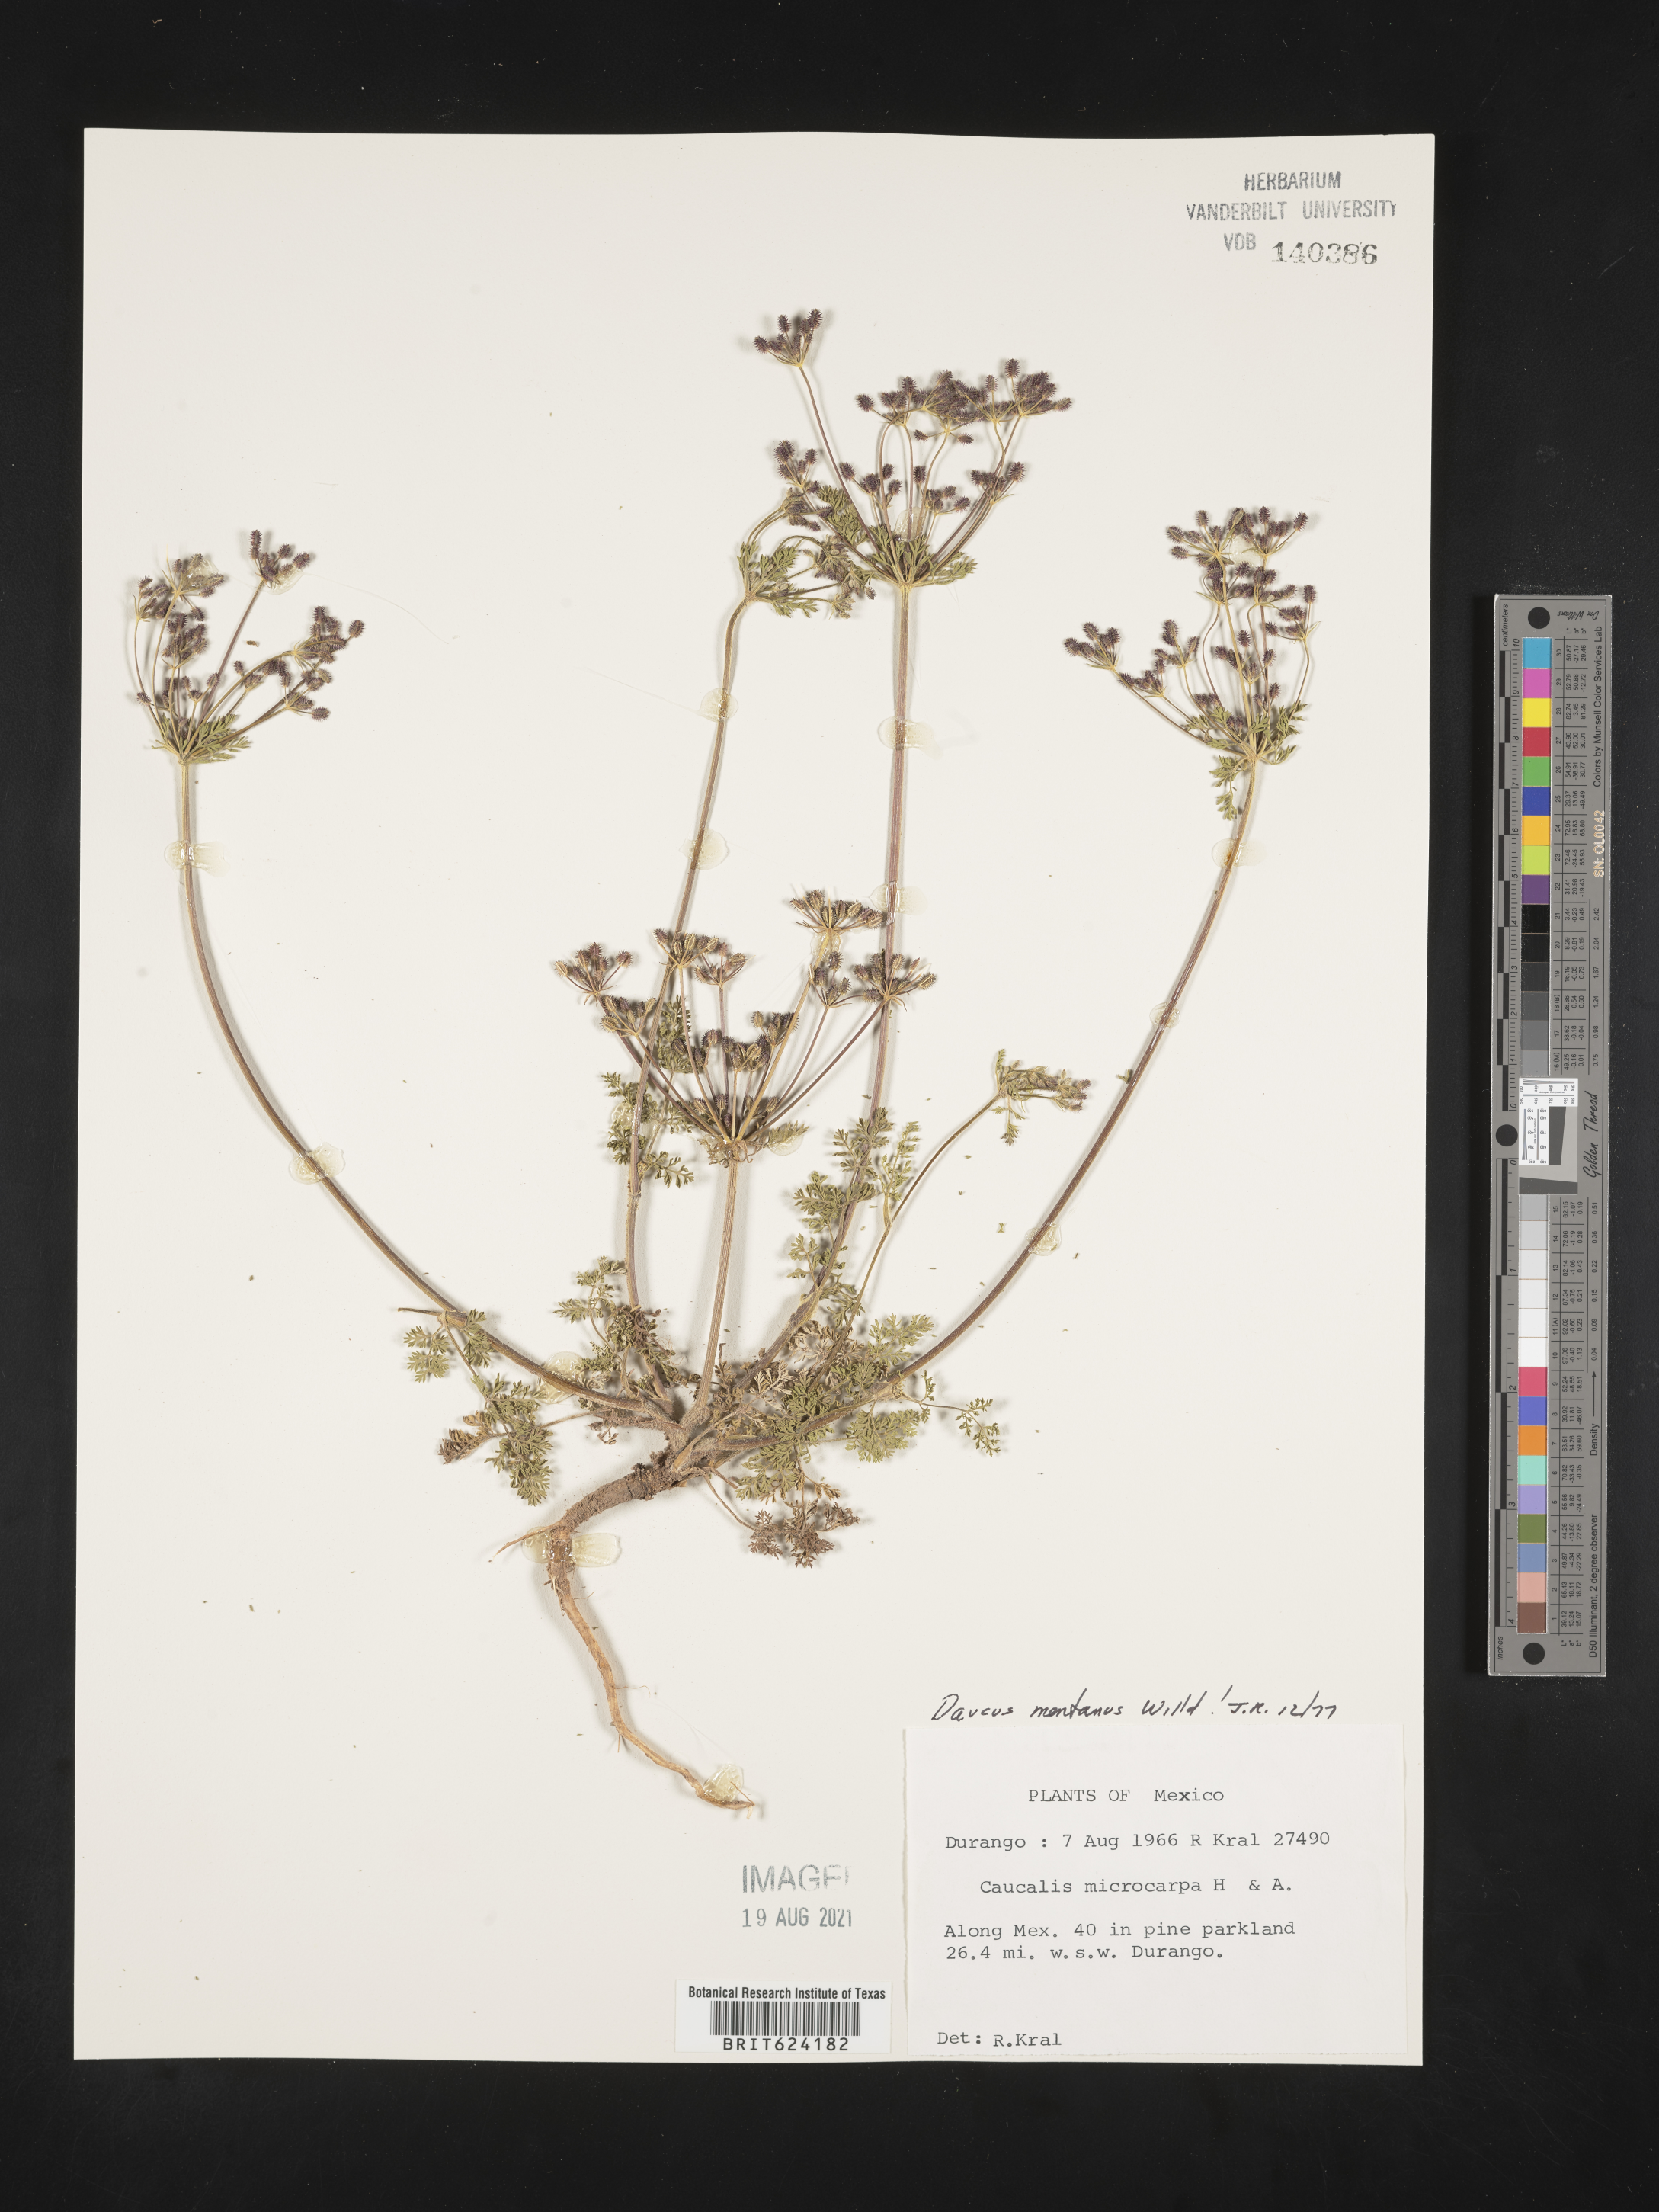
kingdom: Plantae
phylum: Tracheophyta
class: Magnoliopsida
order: Apiales
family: Apiaceae
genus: Daucus
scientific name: Daucus
